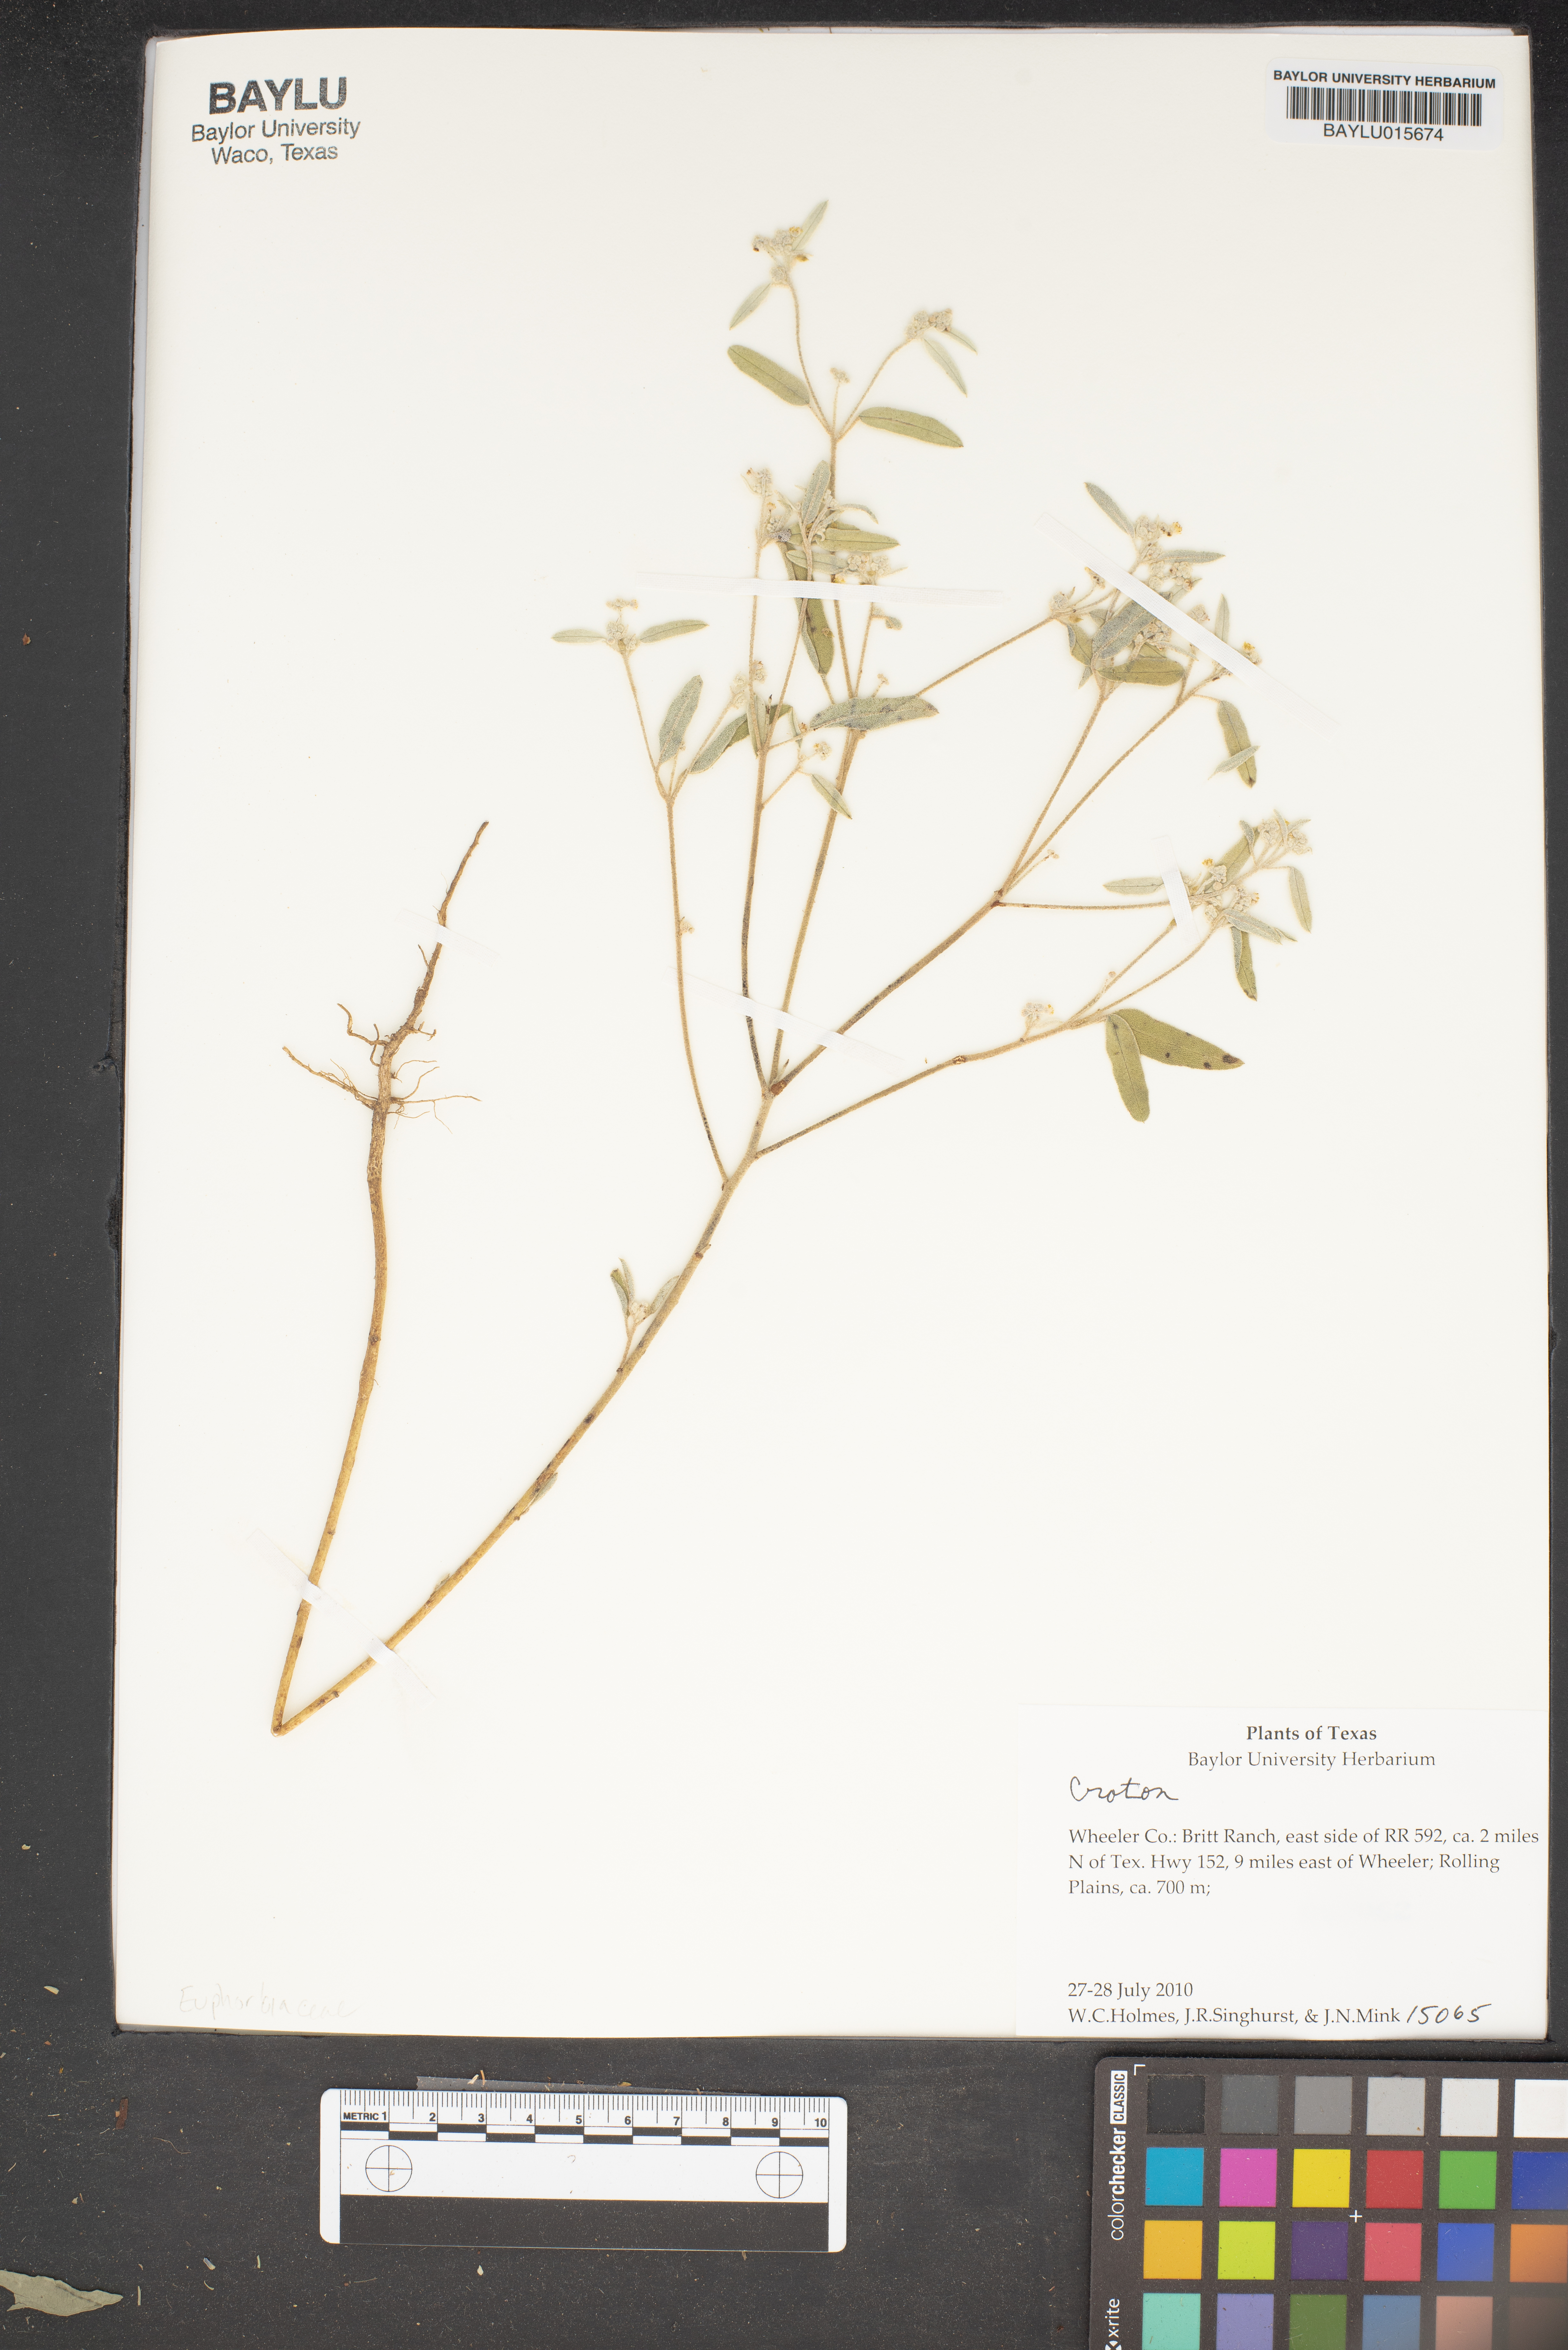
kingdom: Plantae
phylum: Tracheophyta
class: Magnoliopsida
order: Malpighiales
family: Euphorbiaceae
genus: Croton
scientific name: Croton
